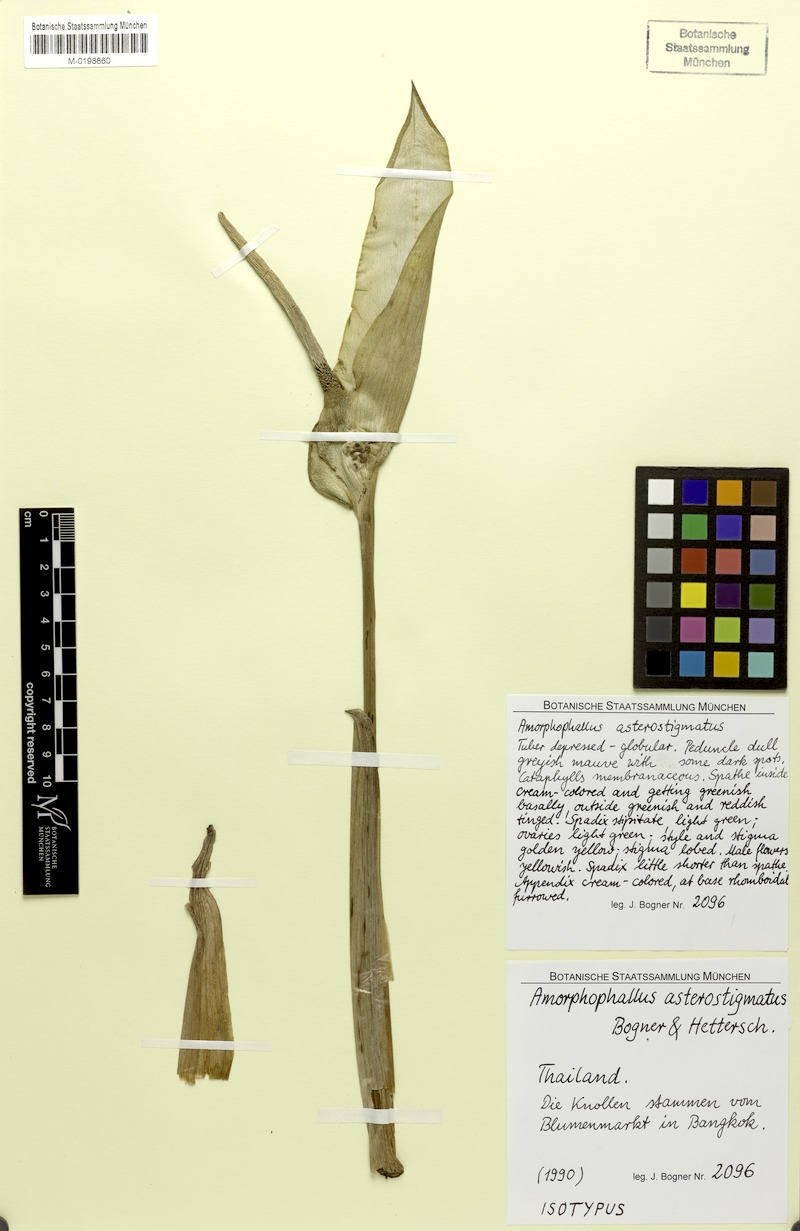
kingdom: Plantae
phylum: Tracheophyta
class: Liliopsida
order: Alismatales
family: Araceae
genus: Amorphophallus
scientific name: Amorphophallus asterostigmatus
